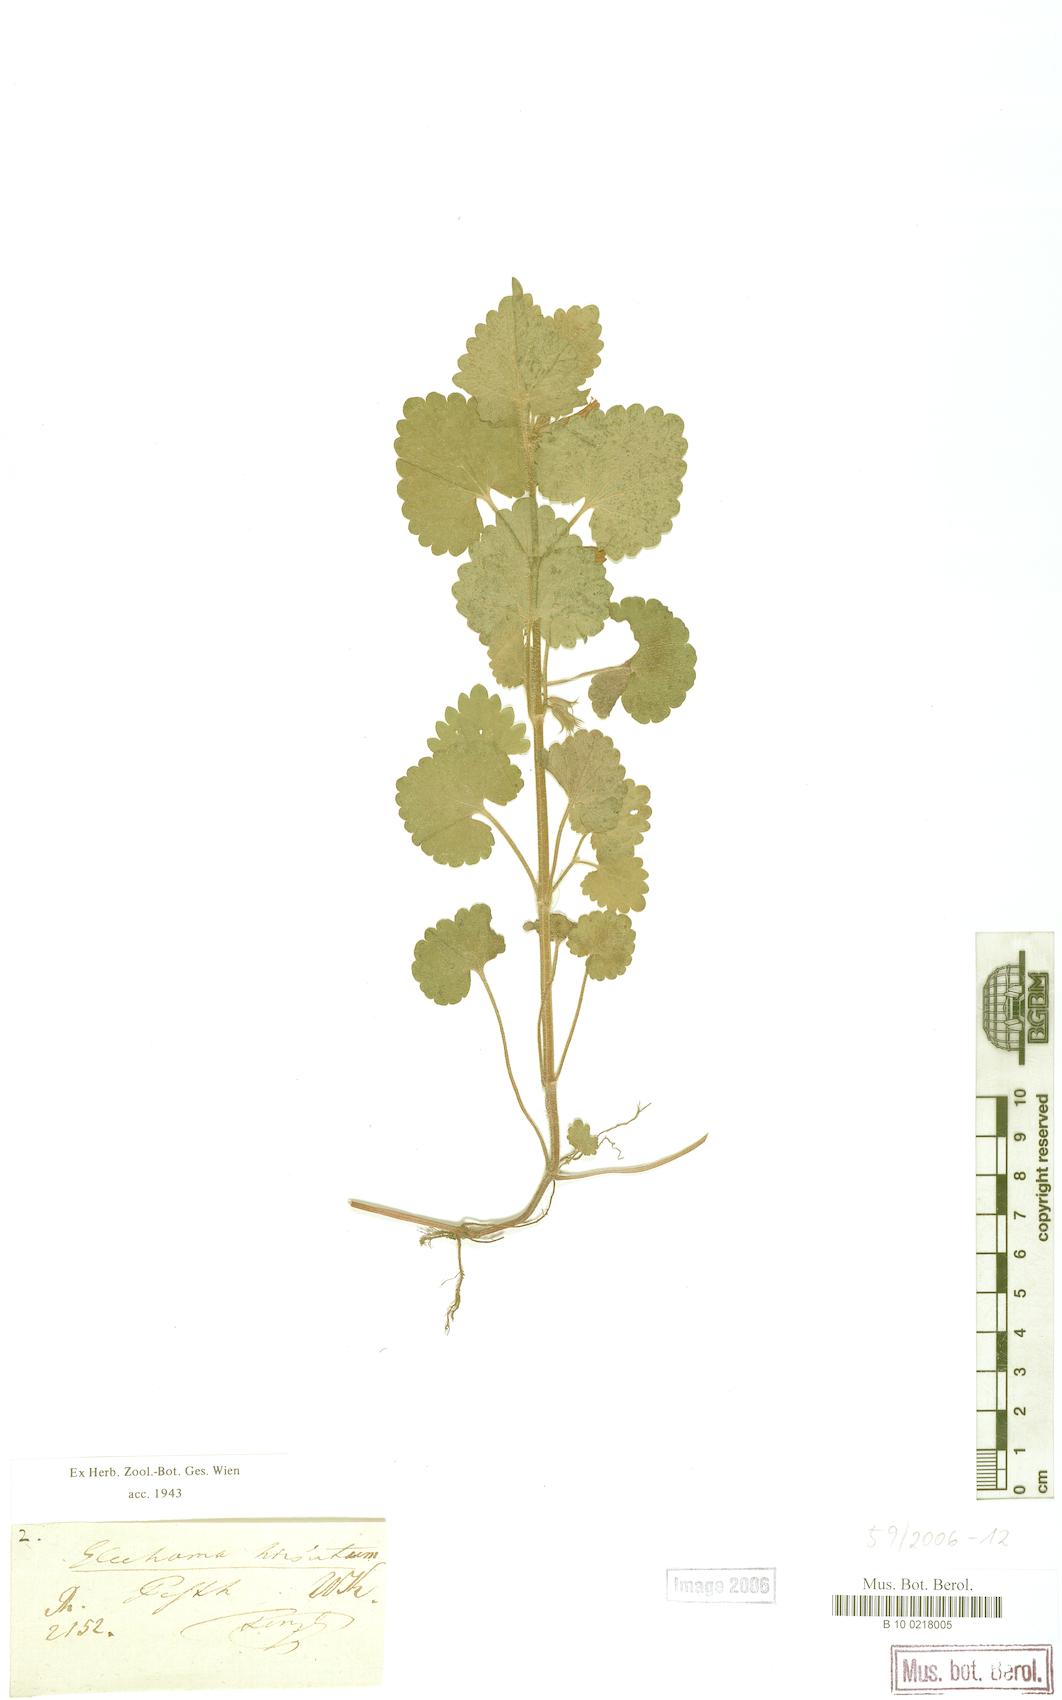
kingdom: Plantae
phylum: Tracheophyta
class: Magnoliopsida
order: Lamiales
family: Lamiaceae
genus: Glechoma
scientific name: Glechoma hirsuta
